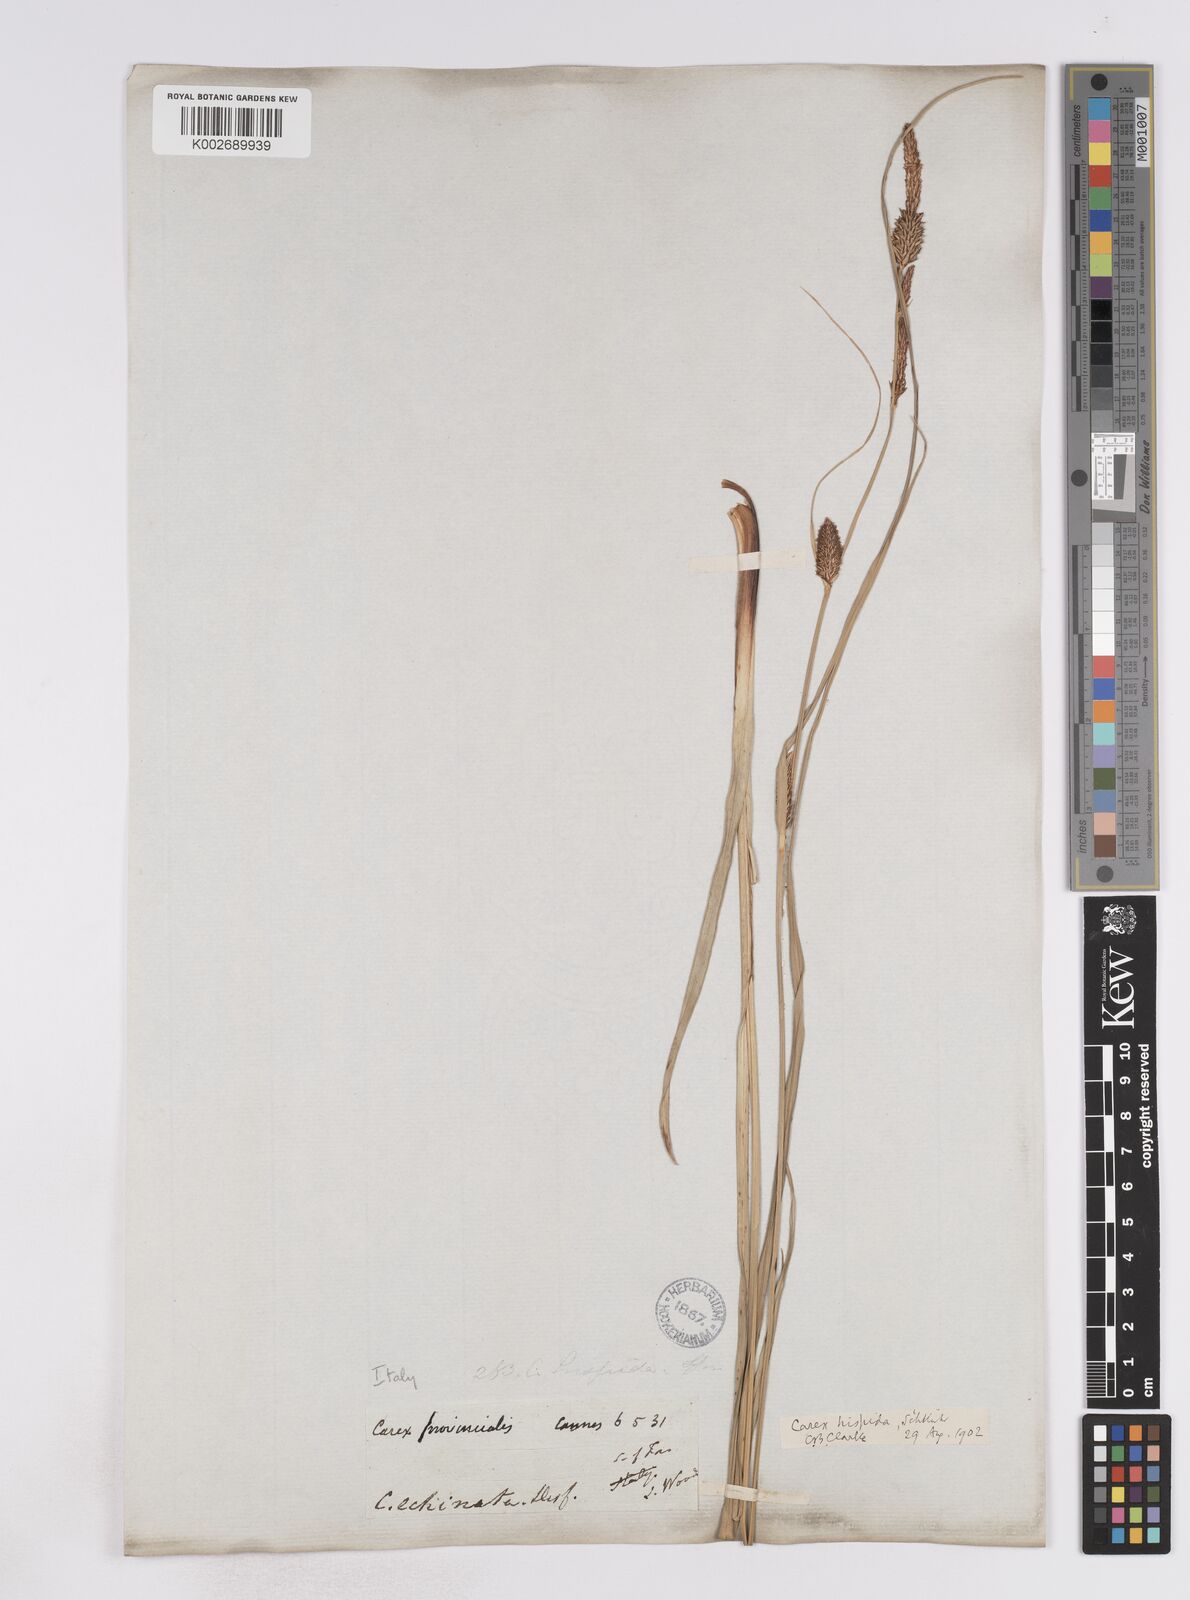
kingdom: Plantae
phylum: Tracheophyta
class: Liliopsida
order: Poales
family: Cyperaceae
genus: Carex
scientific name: Carex hispida
